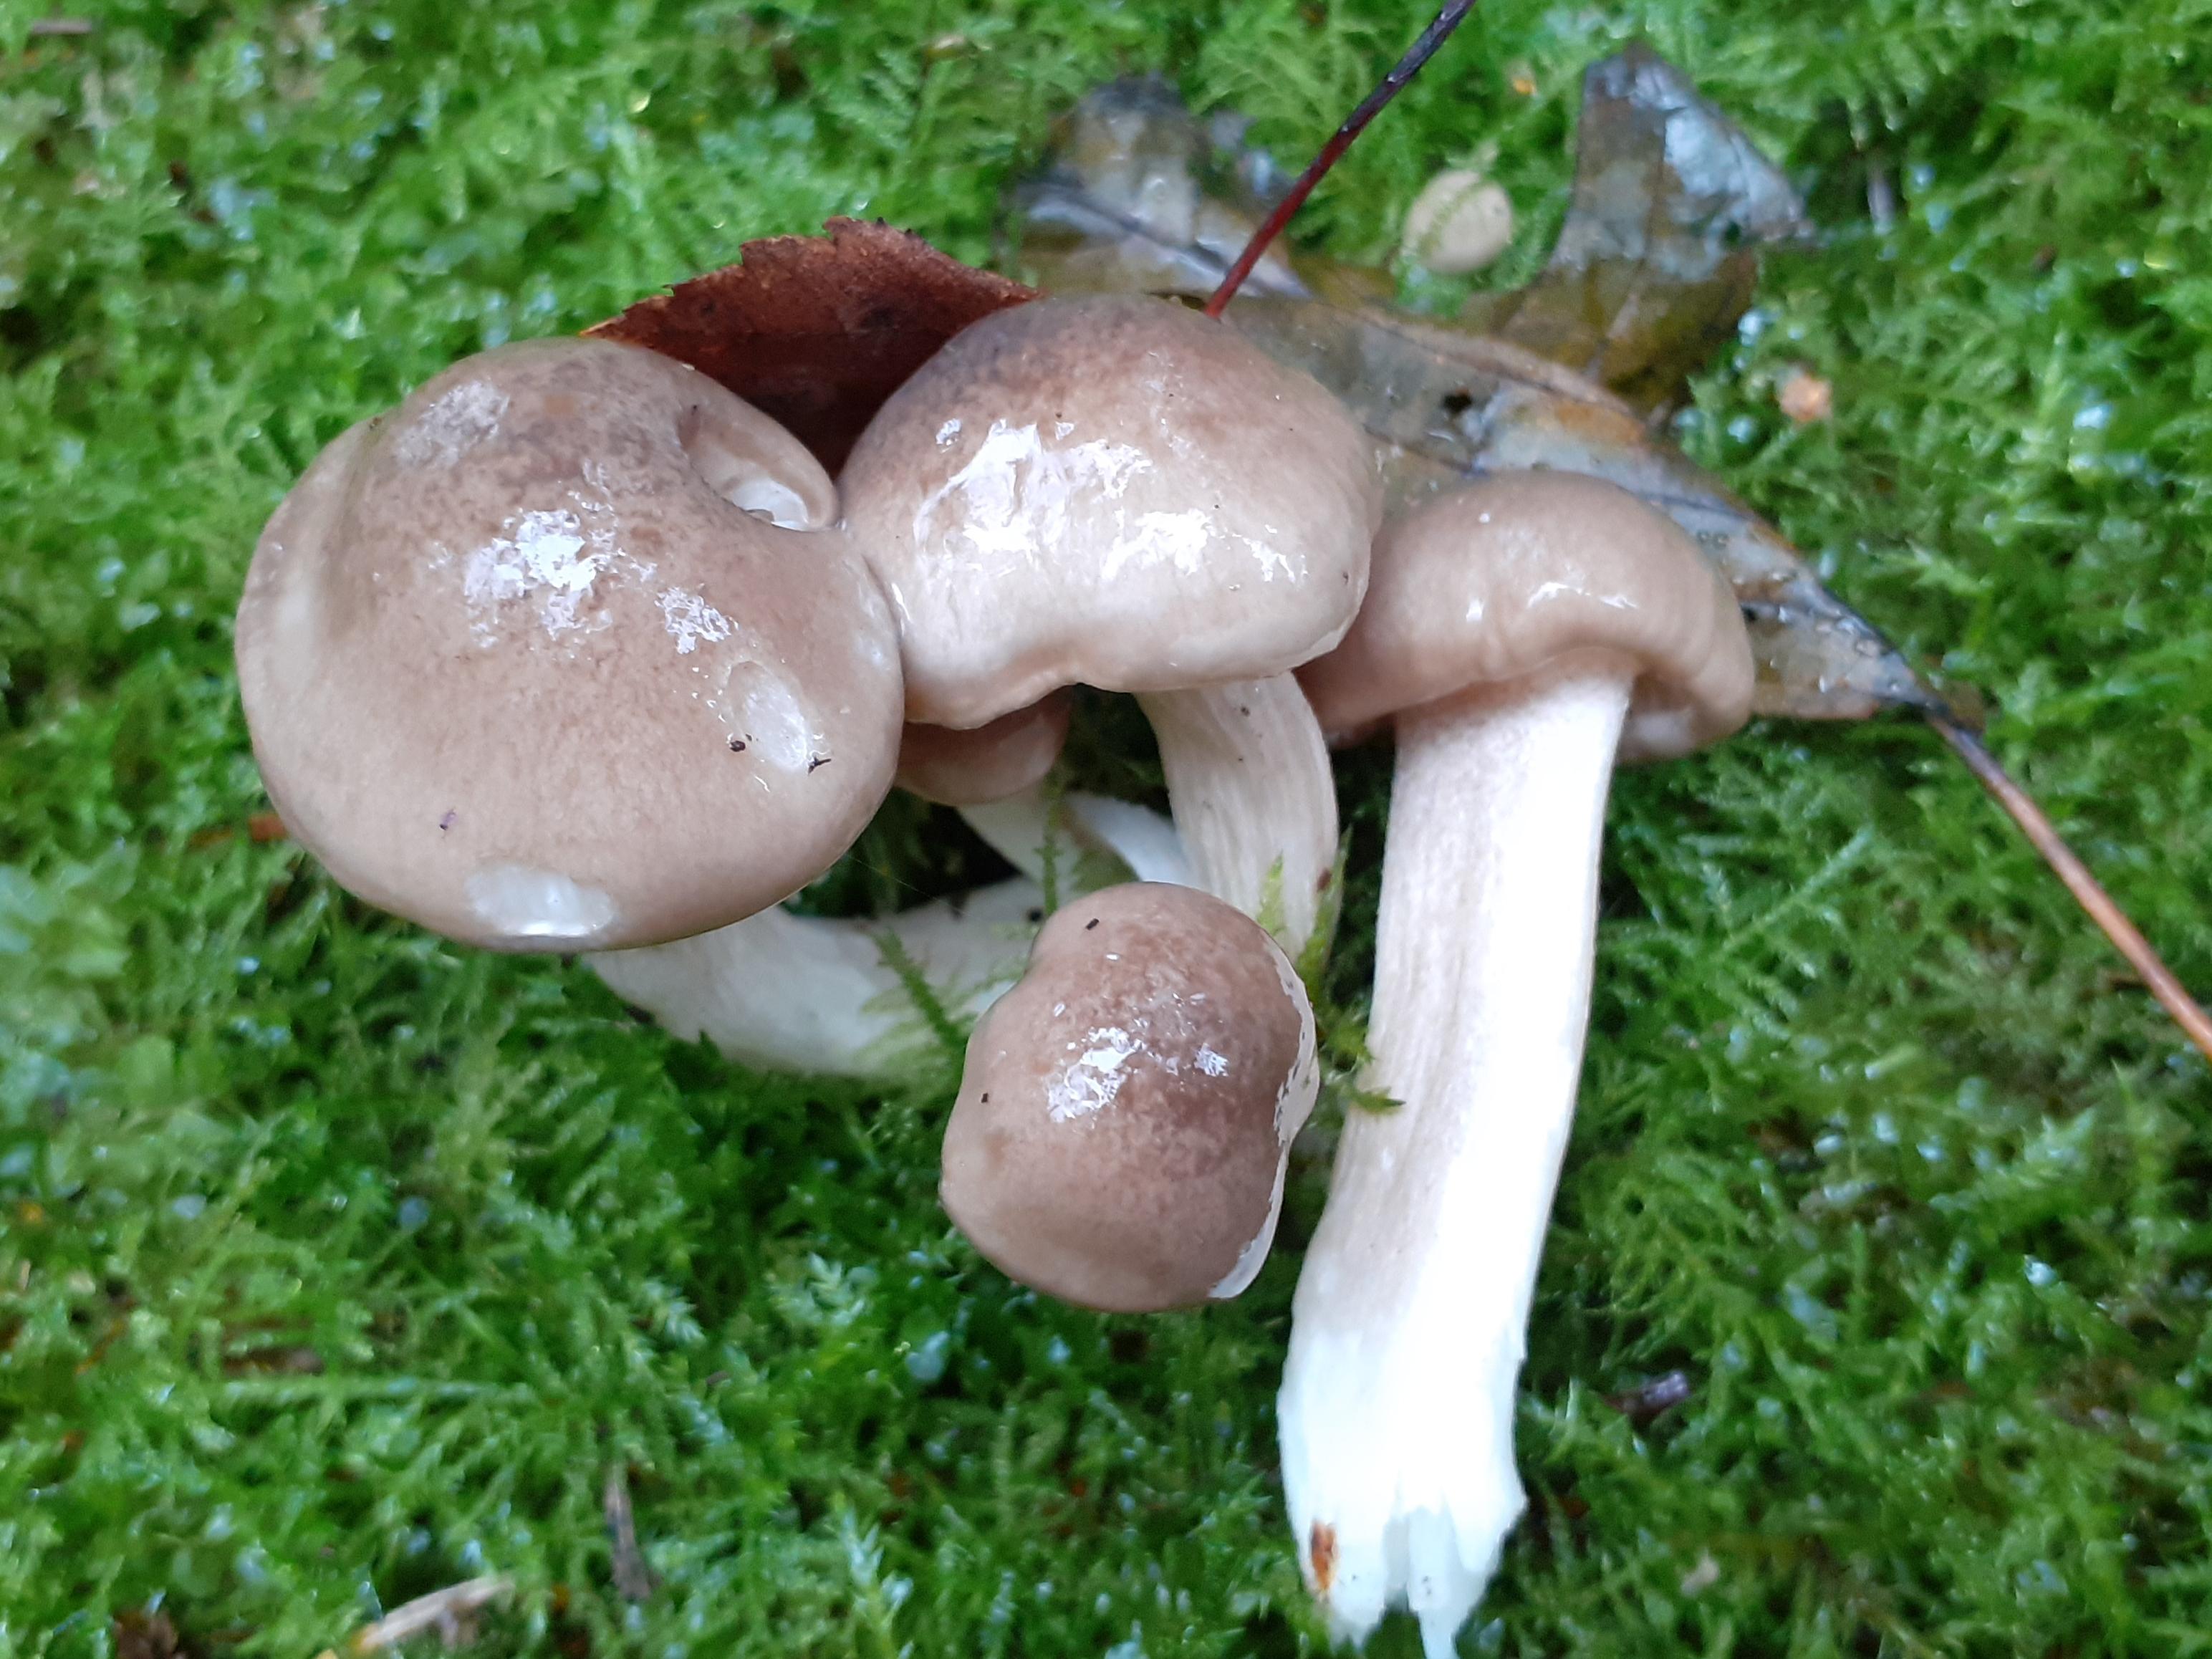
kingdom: Fungi
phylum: Basidiomycota
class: Agaricomycetes
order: Agaricales
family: Hygrophoraceae
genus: Hygrophorus
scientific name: Hygrophorus agathosmus
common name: vellugtende sneglehat
